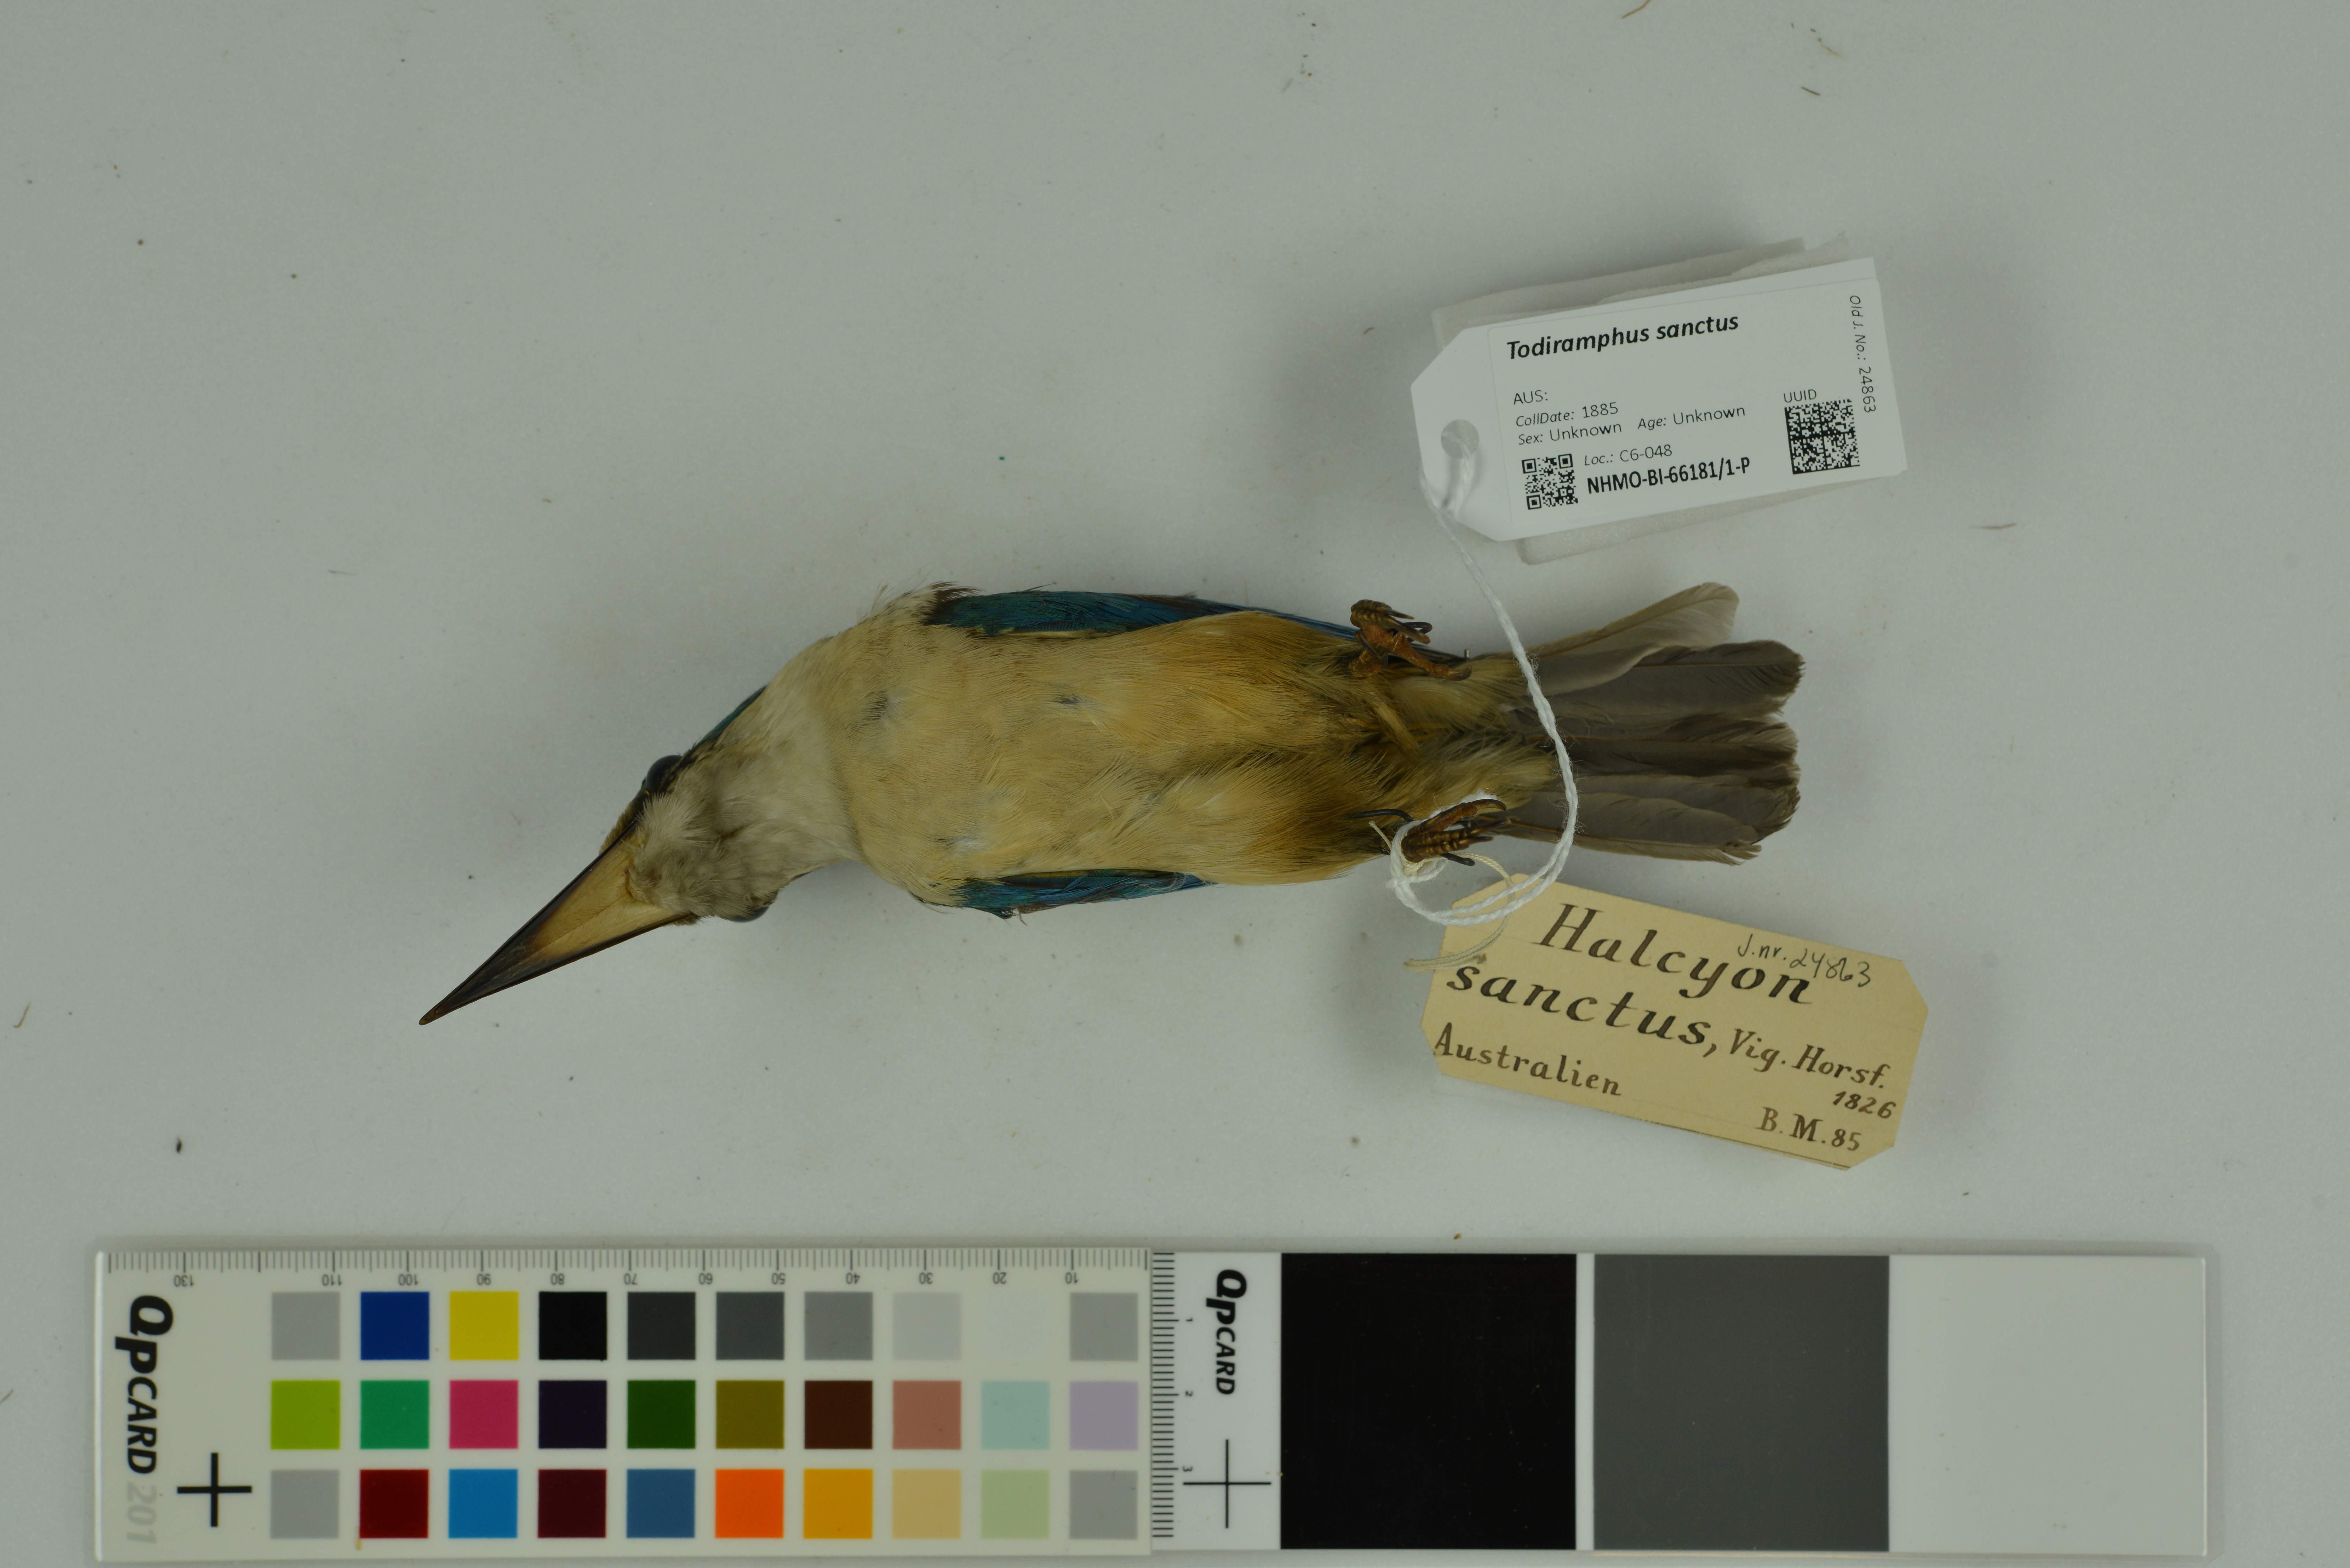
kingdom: Animalia
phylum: Chordata
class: Aves
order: Coraciiformes
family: Alcedinidae
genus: Todiramphus
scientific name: Todiramphus sanctus
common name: Sacred kingfisher
